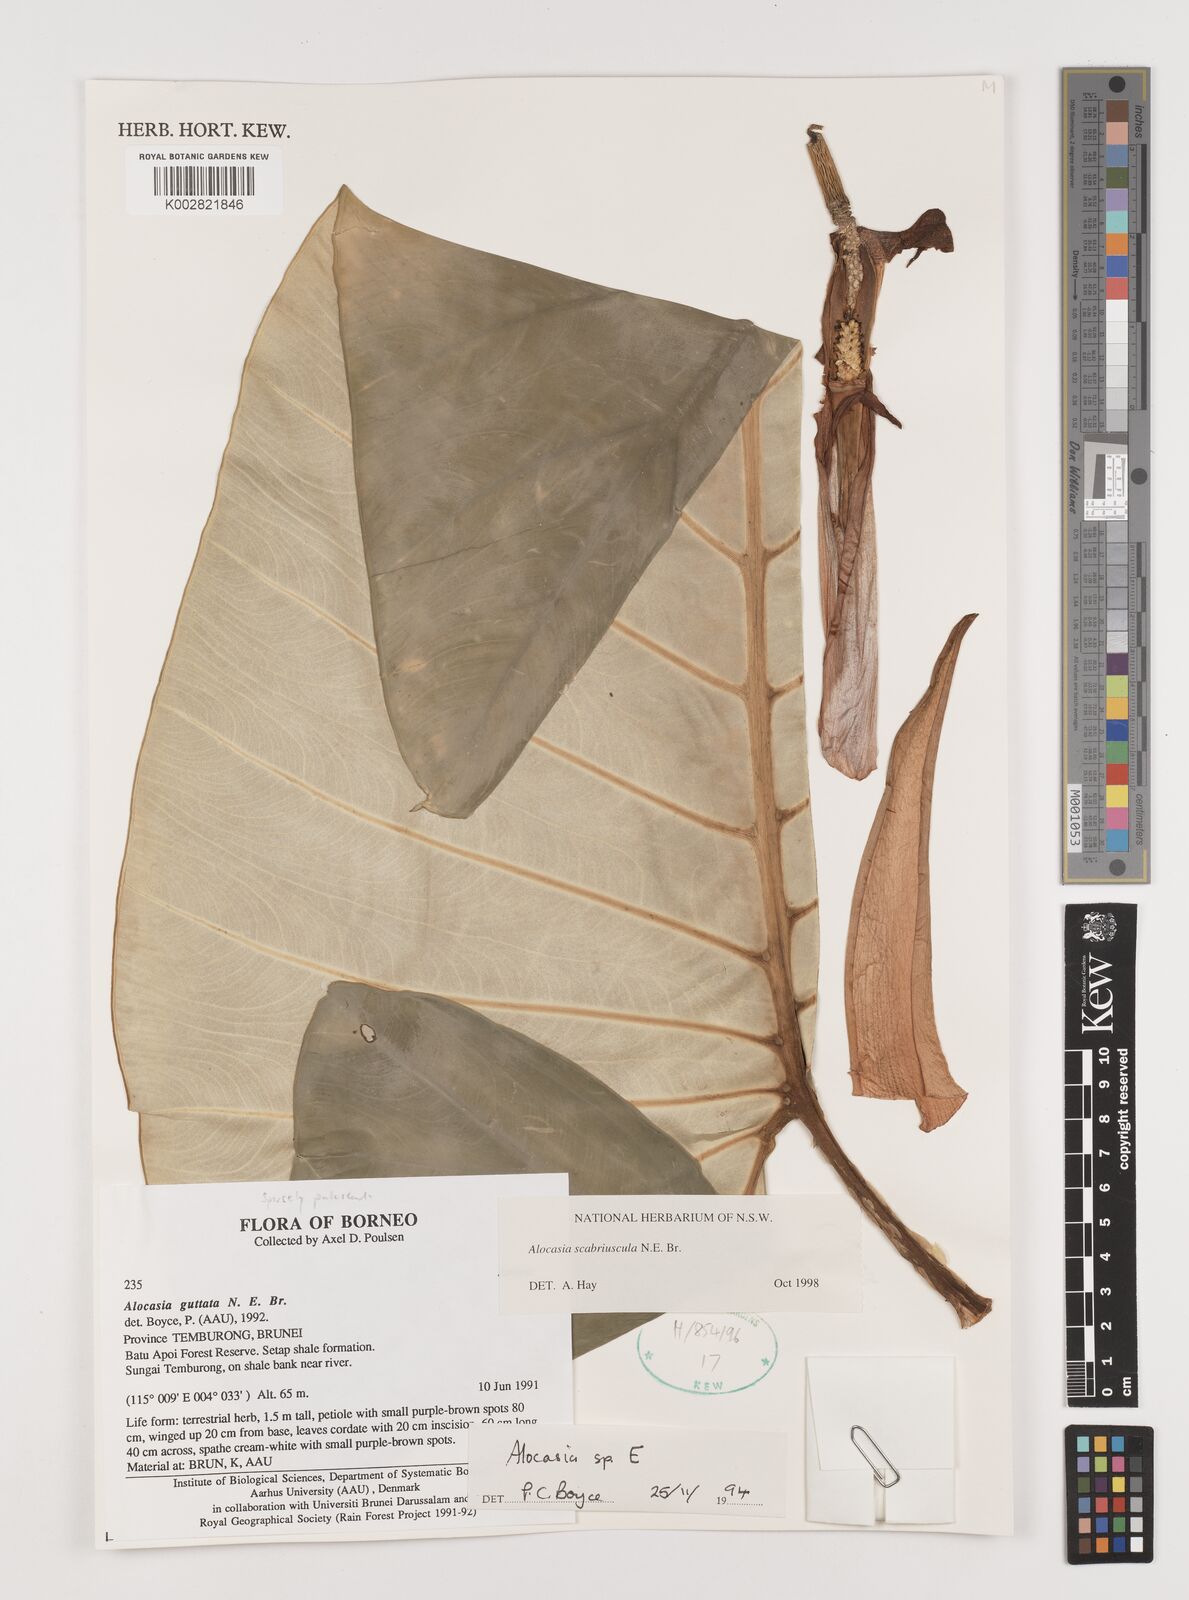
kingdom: Plantae
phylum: Tracheophyta
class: Liliopsida
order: Alismatales
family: Araceae
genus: Alocasia
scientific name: Alocasia scabriuscula
